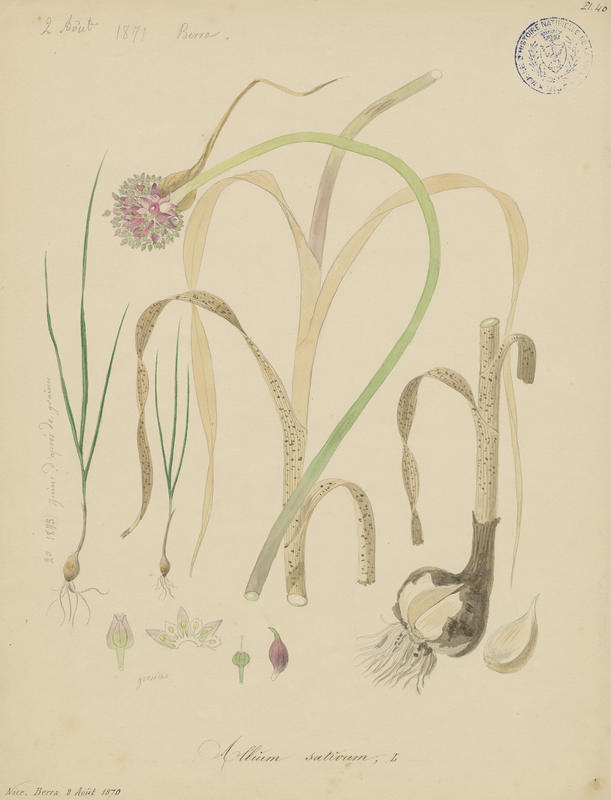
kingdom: Plantae
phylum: Tracheophyta
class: Liliopsida
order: Asparagales
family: Amaryllidaceae
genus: Allium
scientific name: Allium sativum
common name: Garlic
